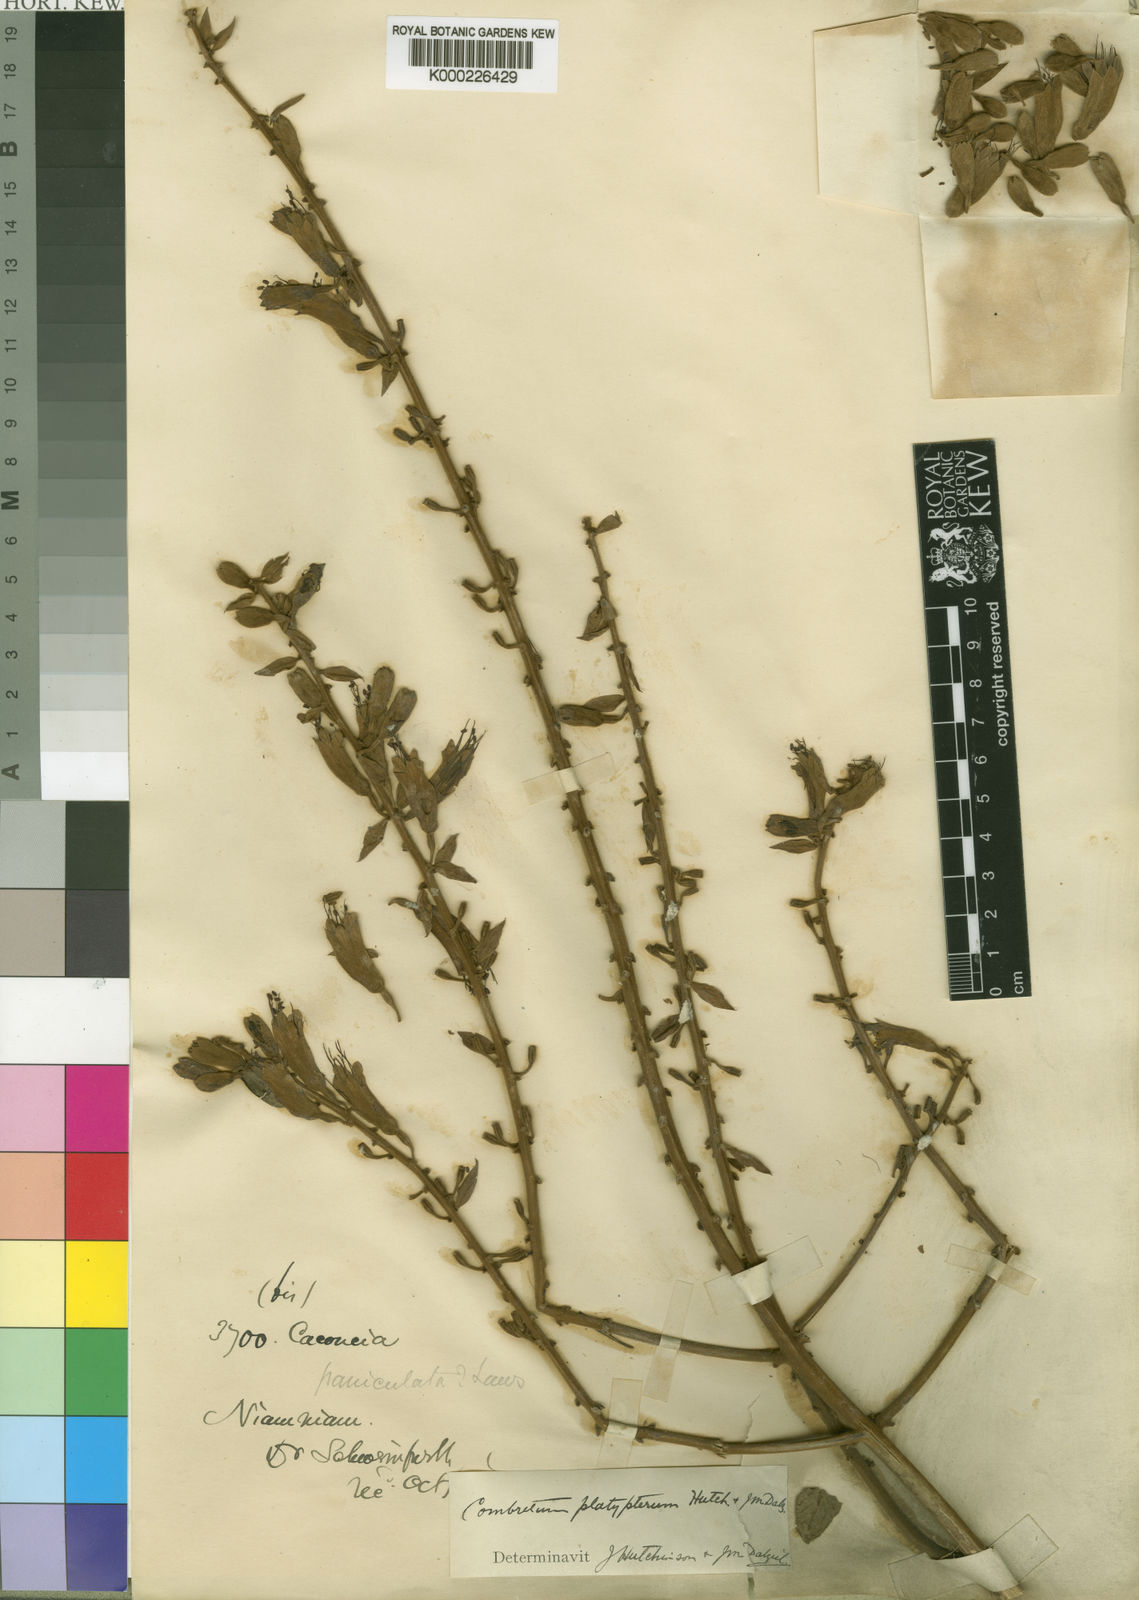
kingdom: Plantae
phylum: Tracheophyta
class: Magnoliopsida
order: Myrtales
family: Combretaceae
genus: Combretum
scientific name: Combretum platypterum
